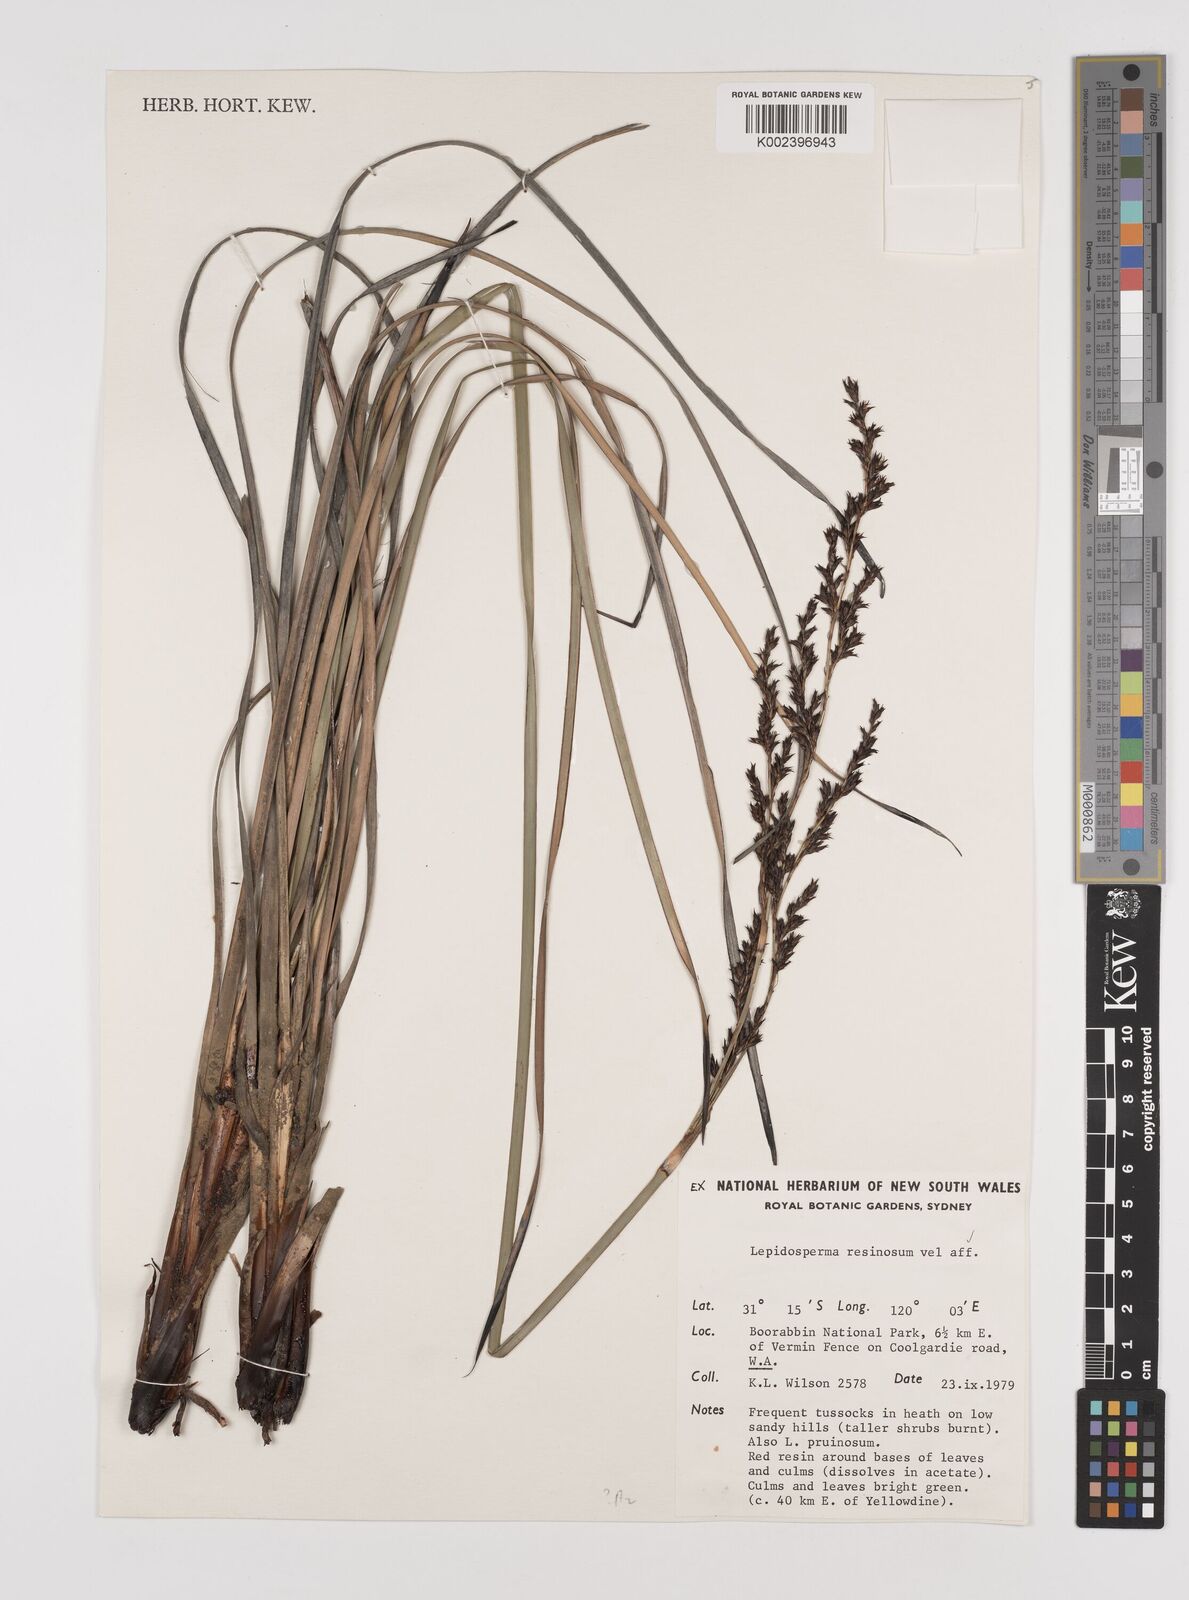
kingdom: Plantae
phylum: Tracheophyta
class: Liliopsida
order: Poales
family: Cyperaceae
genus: Lepidosperma
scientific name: Lepidosperma resinosum
